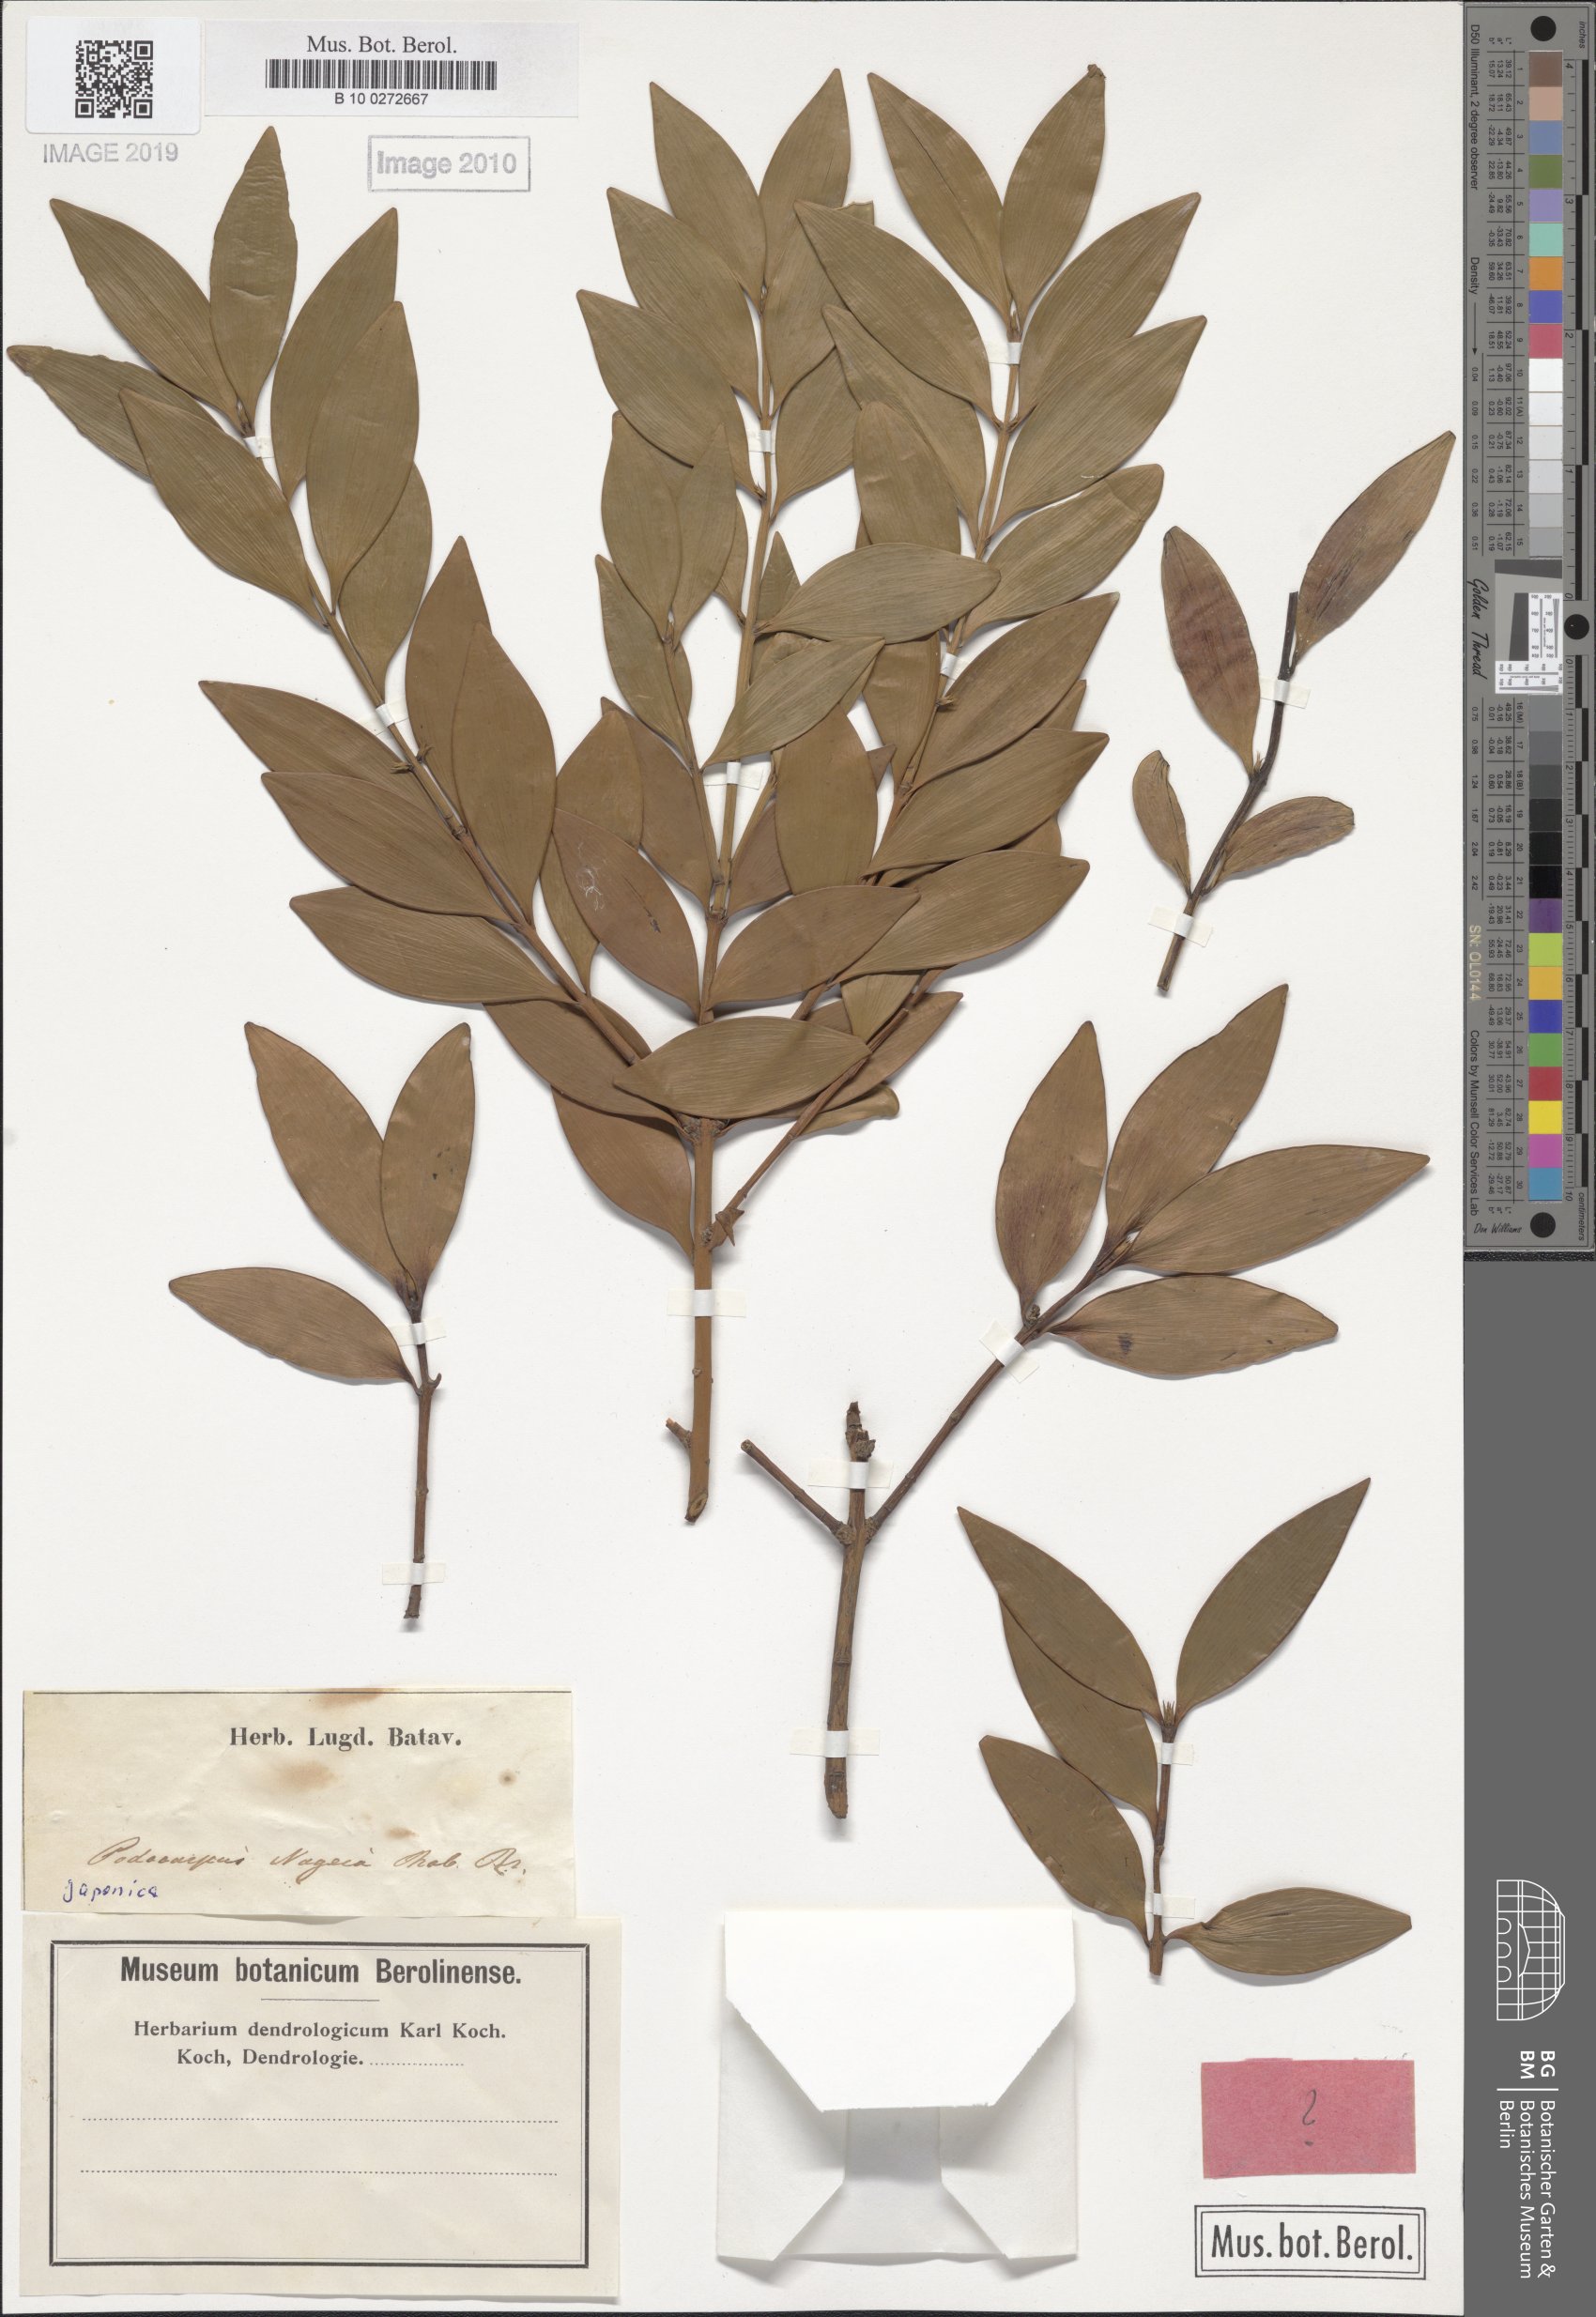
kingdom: Plantae
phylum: Tracheophyta
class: Pinopsida
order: Pinales
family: Podocarpaceae
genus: Nageia
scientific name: Nageia nagi
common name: Kaphal
